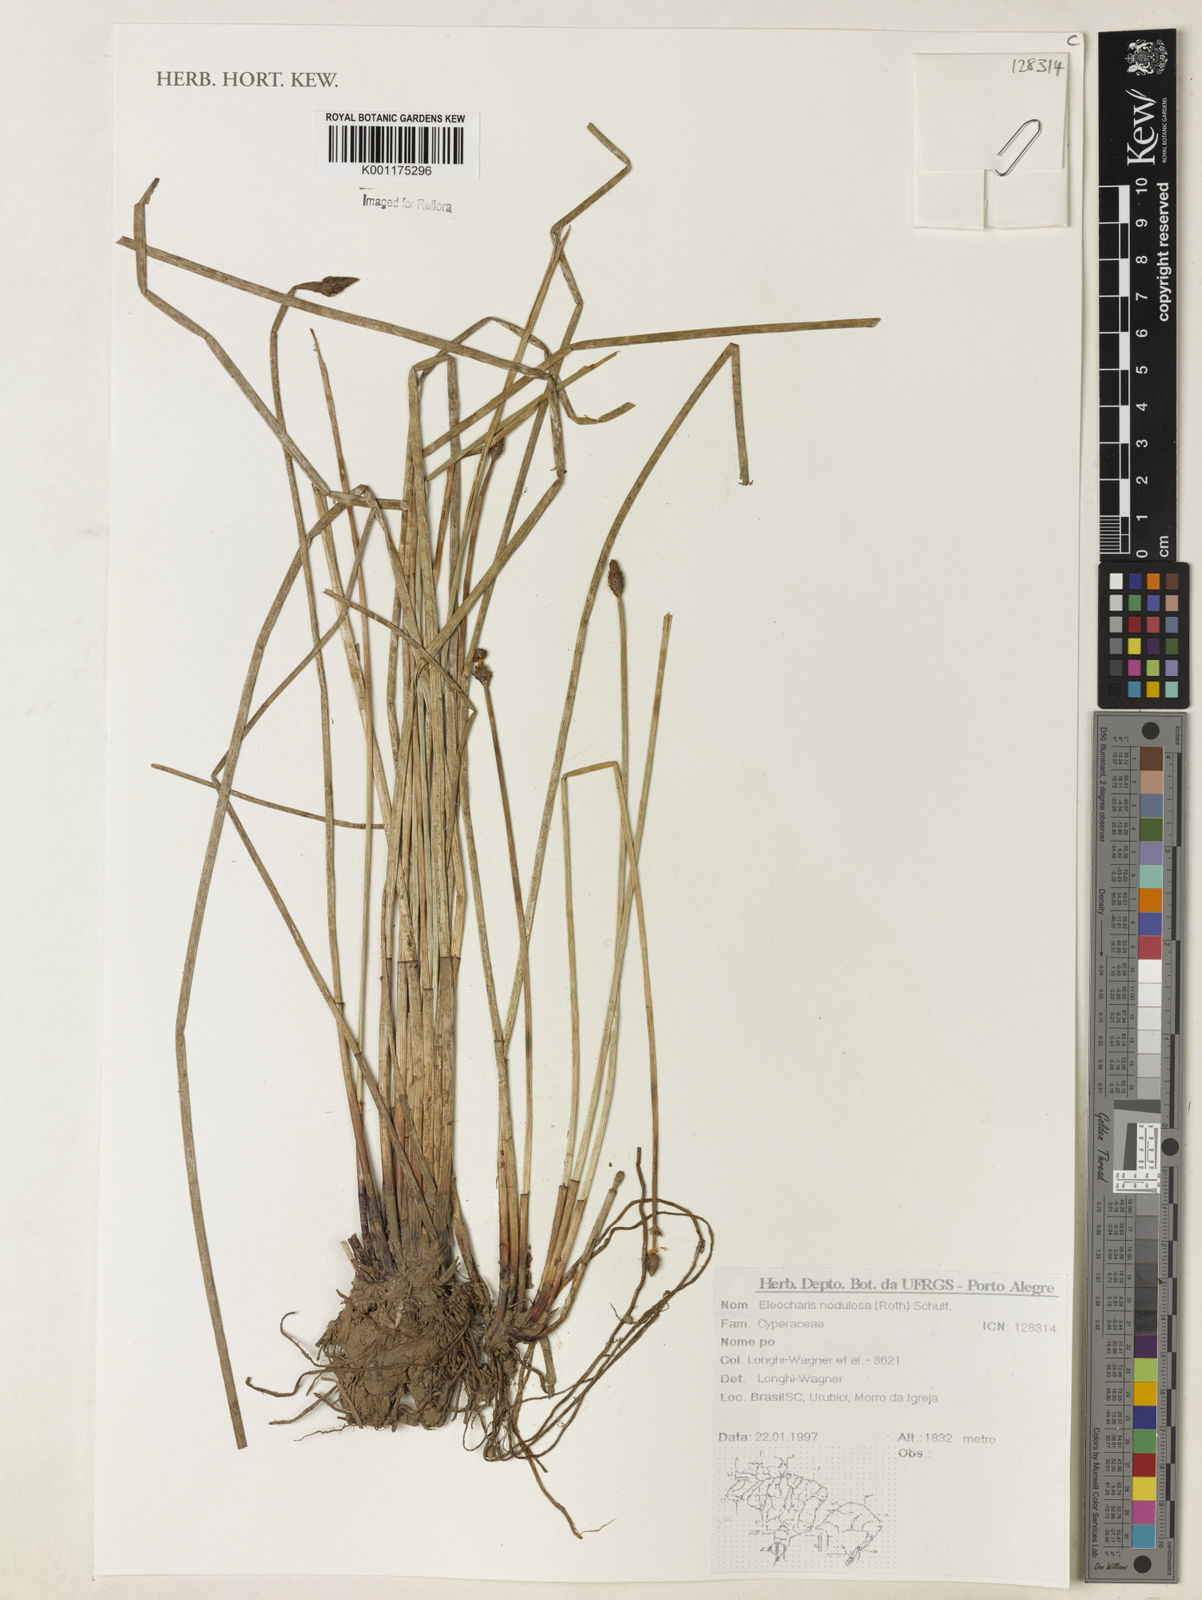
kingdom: Plantae
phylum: Tracheophyta
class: Liliopsida
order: Poales
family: Cyperaceae
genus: Eleocharis
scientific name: Eleocharis montana
